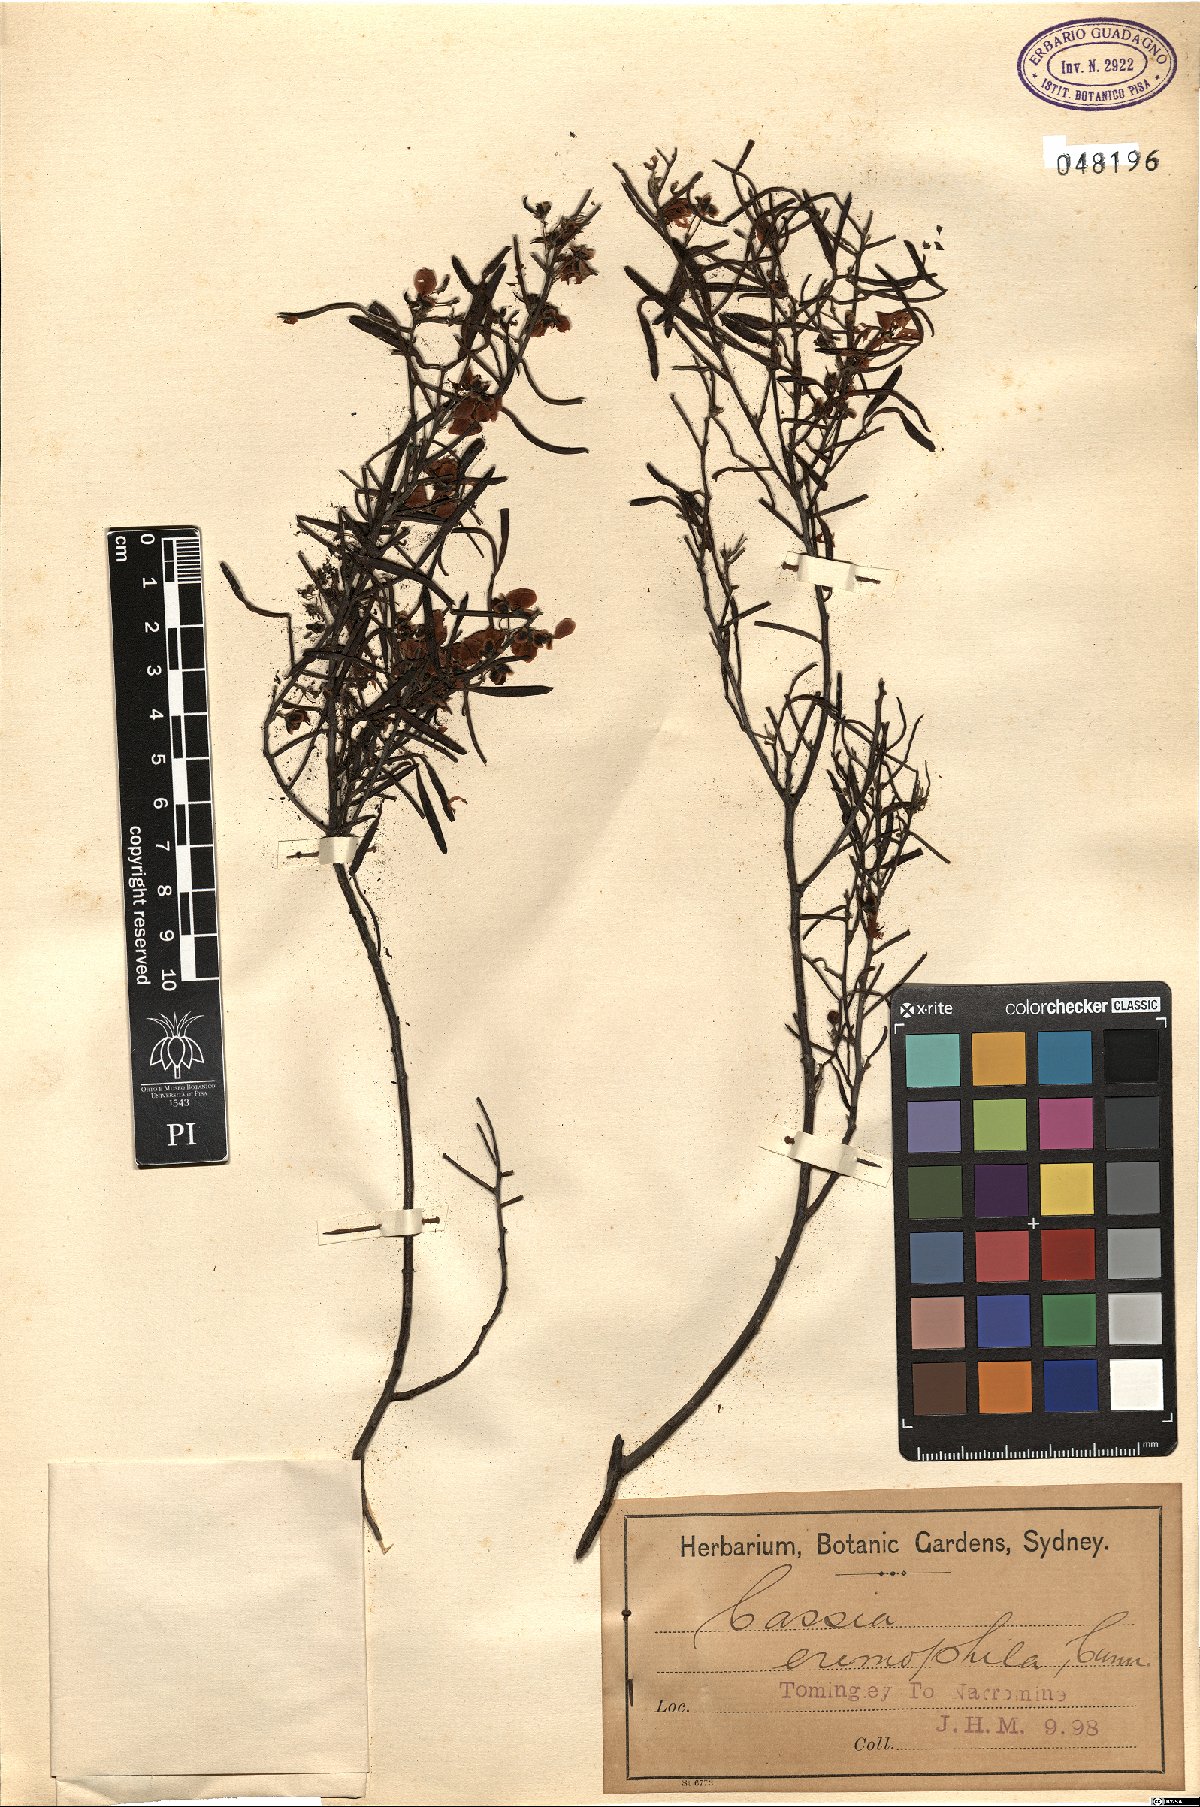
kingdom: Plantae
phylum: Tracheophyta
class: Magnoliopsida
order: Fabales
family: Fabaceae
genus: Cassia
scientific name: Cassia eremophila
